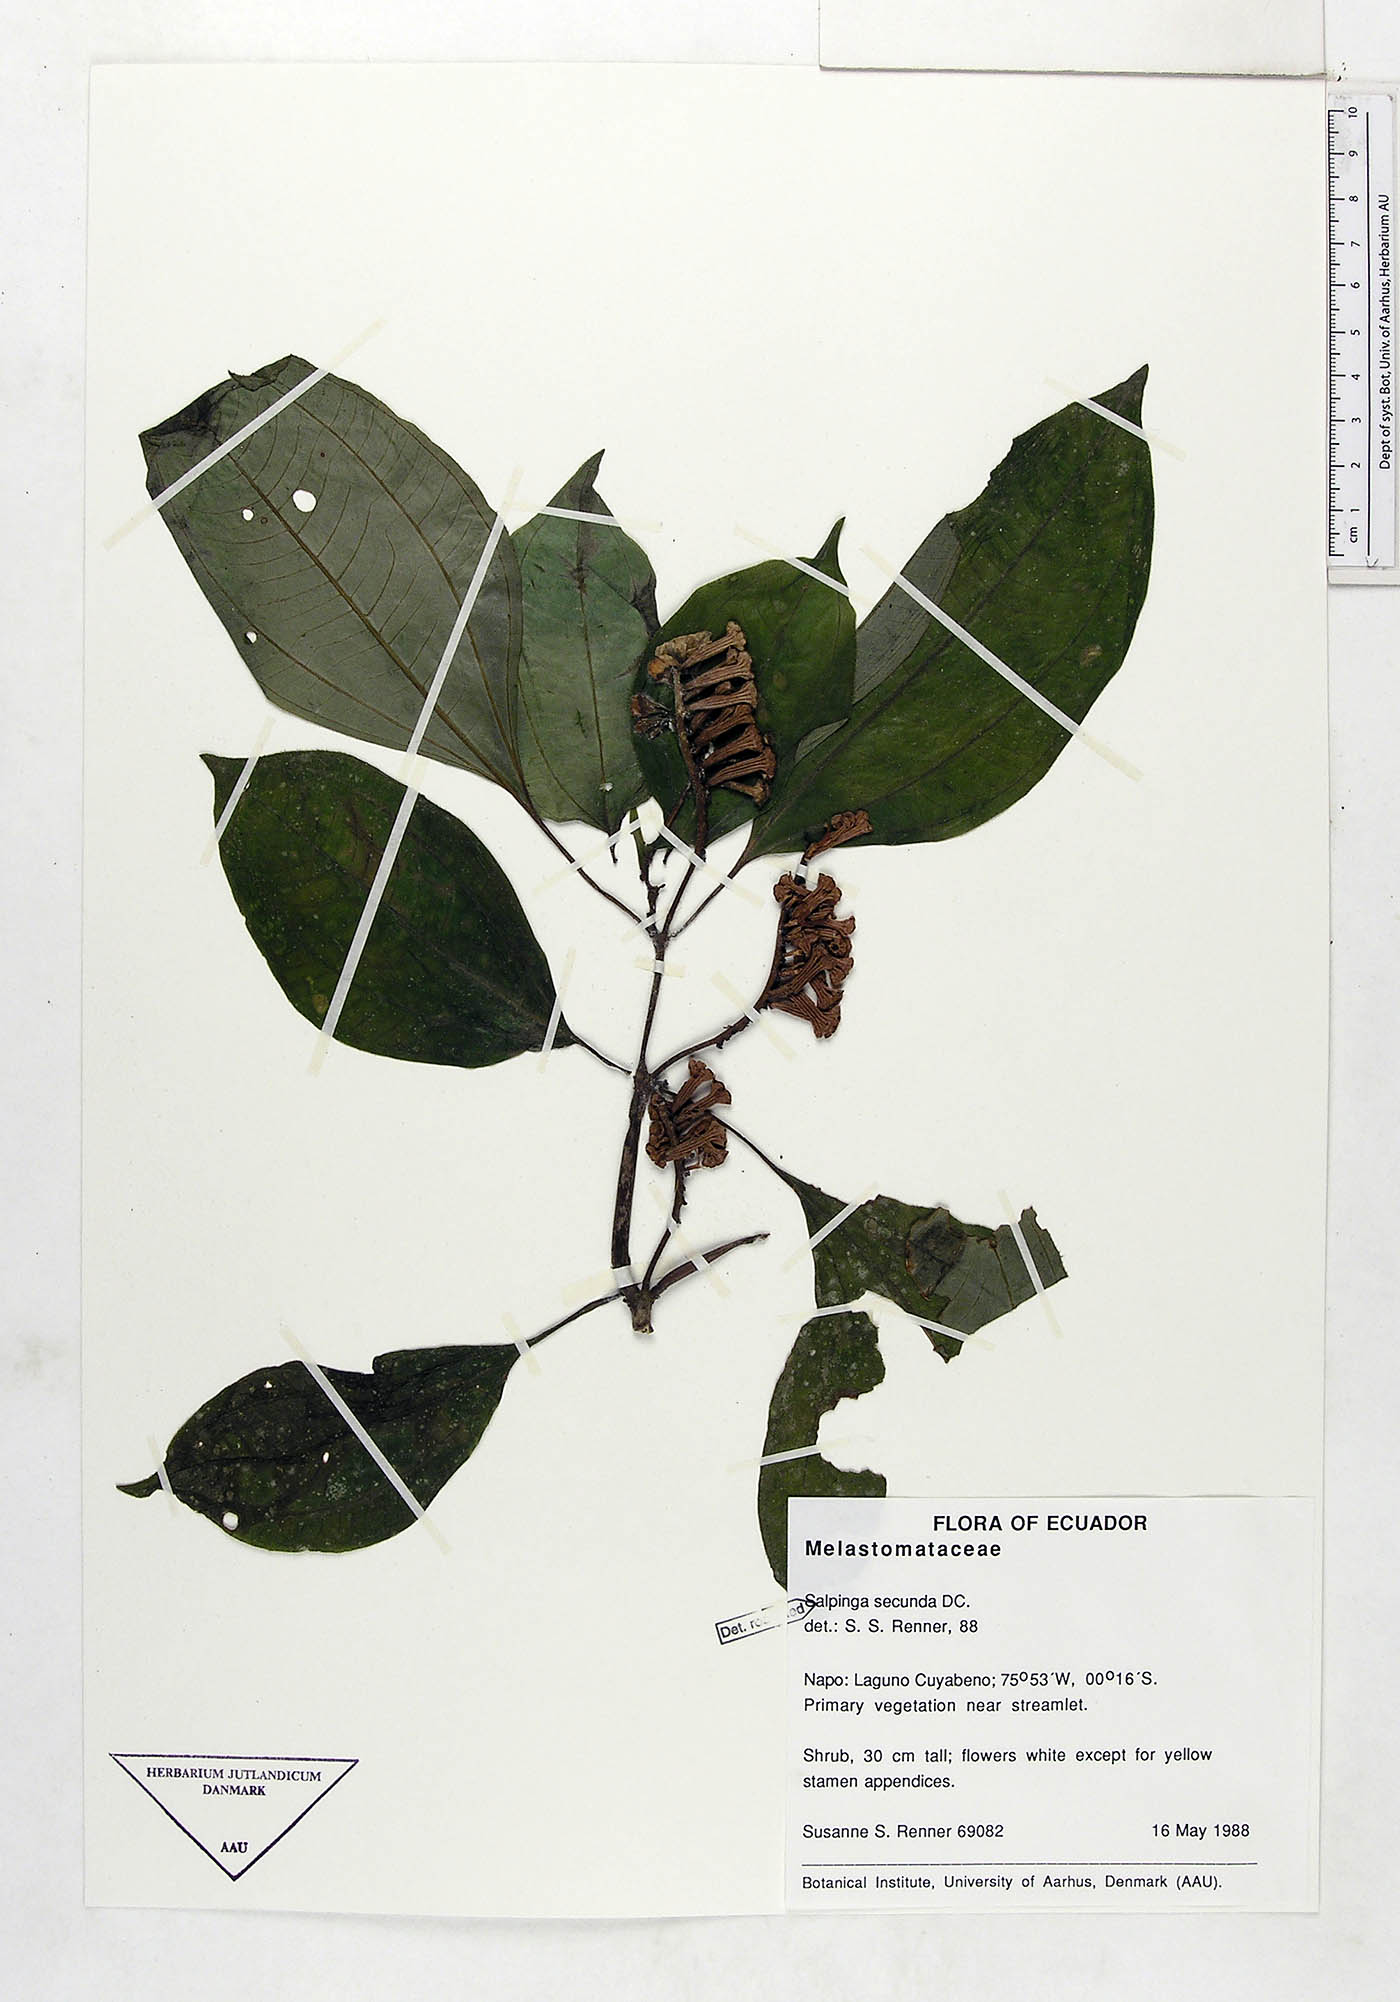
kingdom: Plantae
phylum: Tracheophyta
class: Magnoliopsida
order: Myrtales
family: Melastomataceae
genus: Salpinga
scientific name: Salpinga secunda
